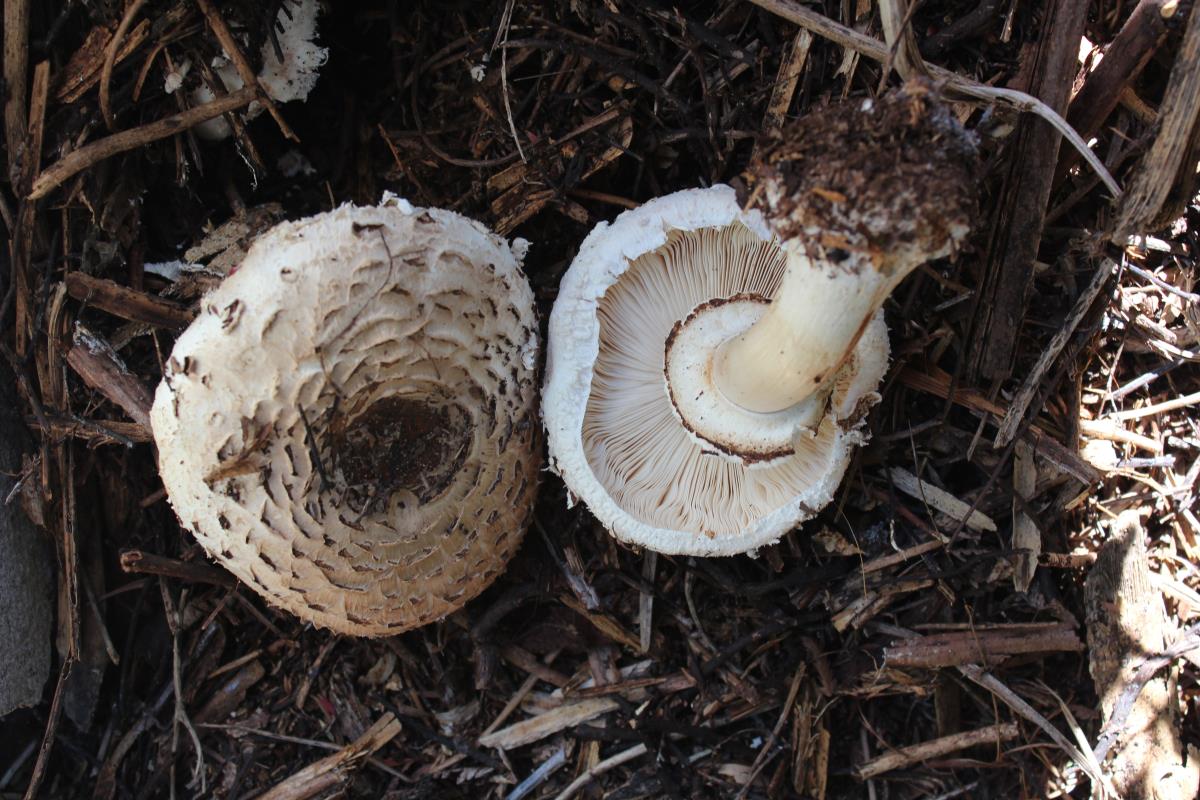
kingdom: Fungi
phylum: Basidiomycota
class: Agaricomycetes
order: Agaricales
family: Agaricaceae
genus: Chlorophyllum
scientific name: Chlorophyllum rhacodes
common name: Shaggy parasol
